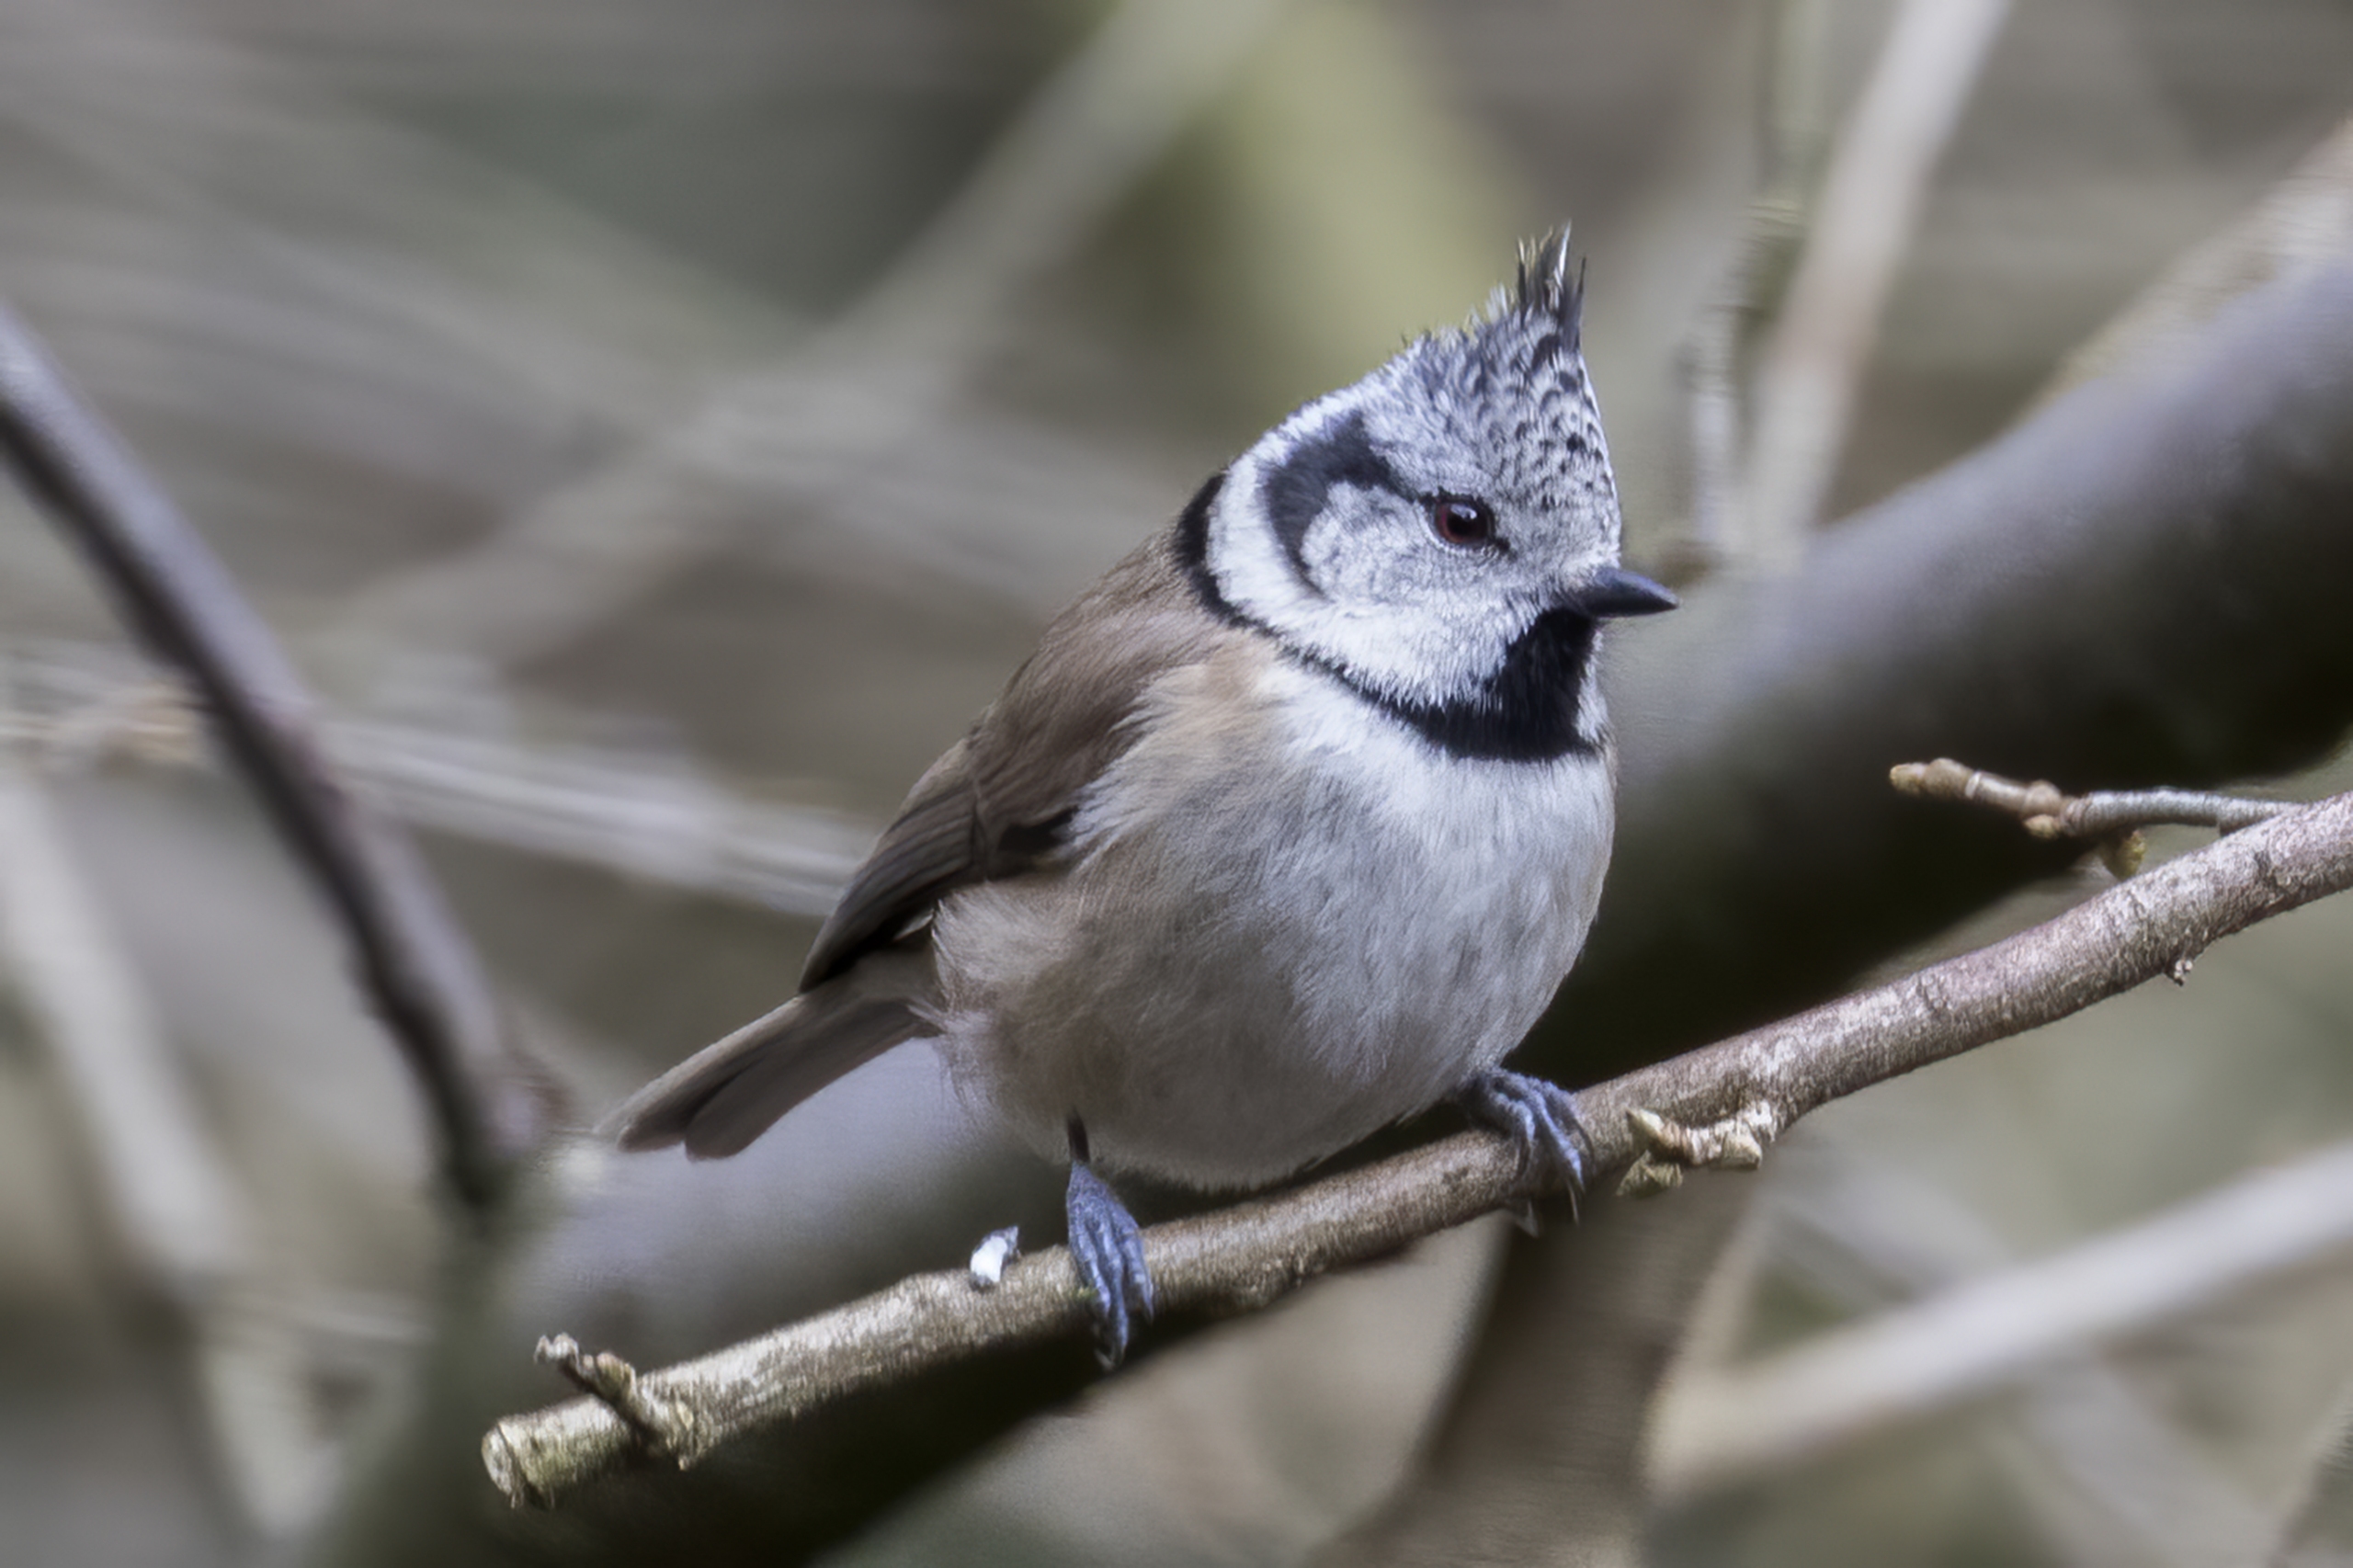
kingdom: Animalia
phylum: Chordata
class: Aves
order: Passeriformes
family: Paridae
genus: Lophophanes
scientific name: Lophophanes cristatus
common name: Topmejse
